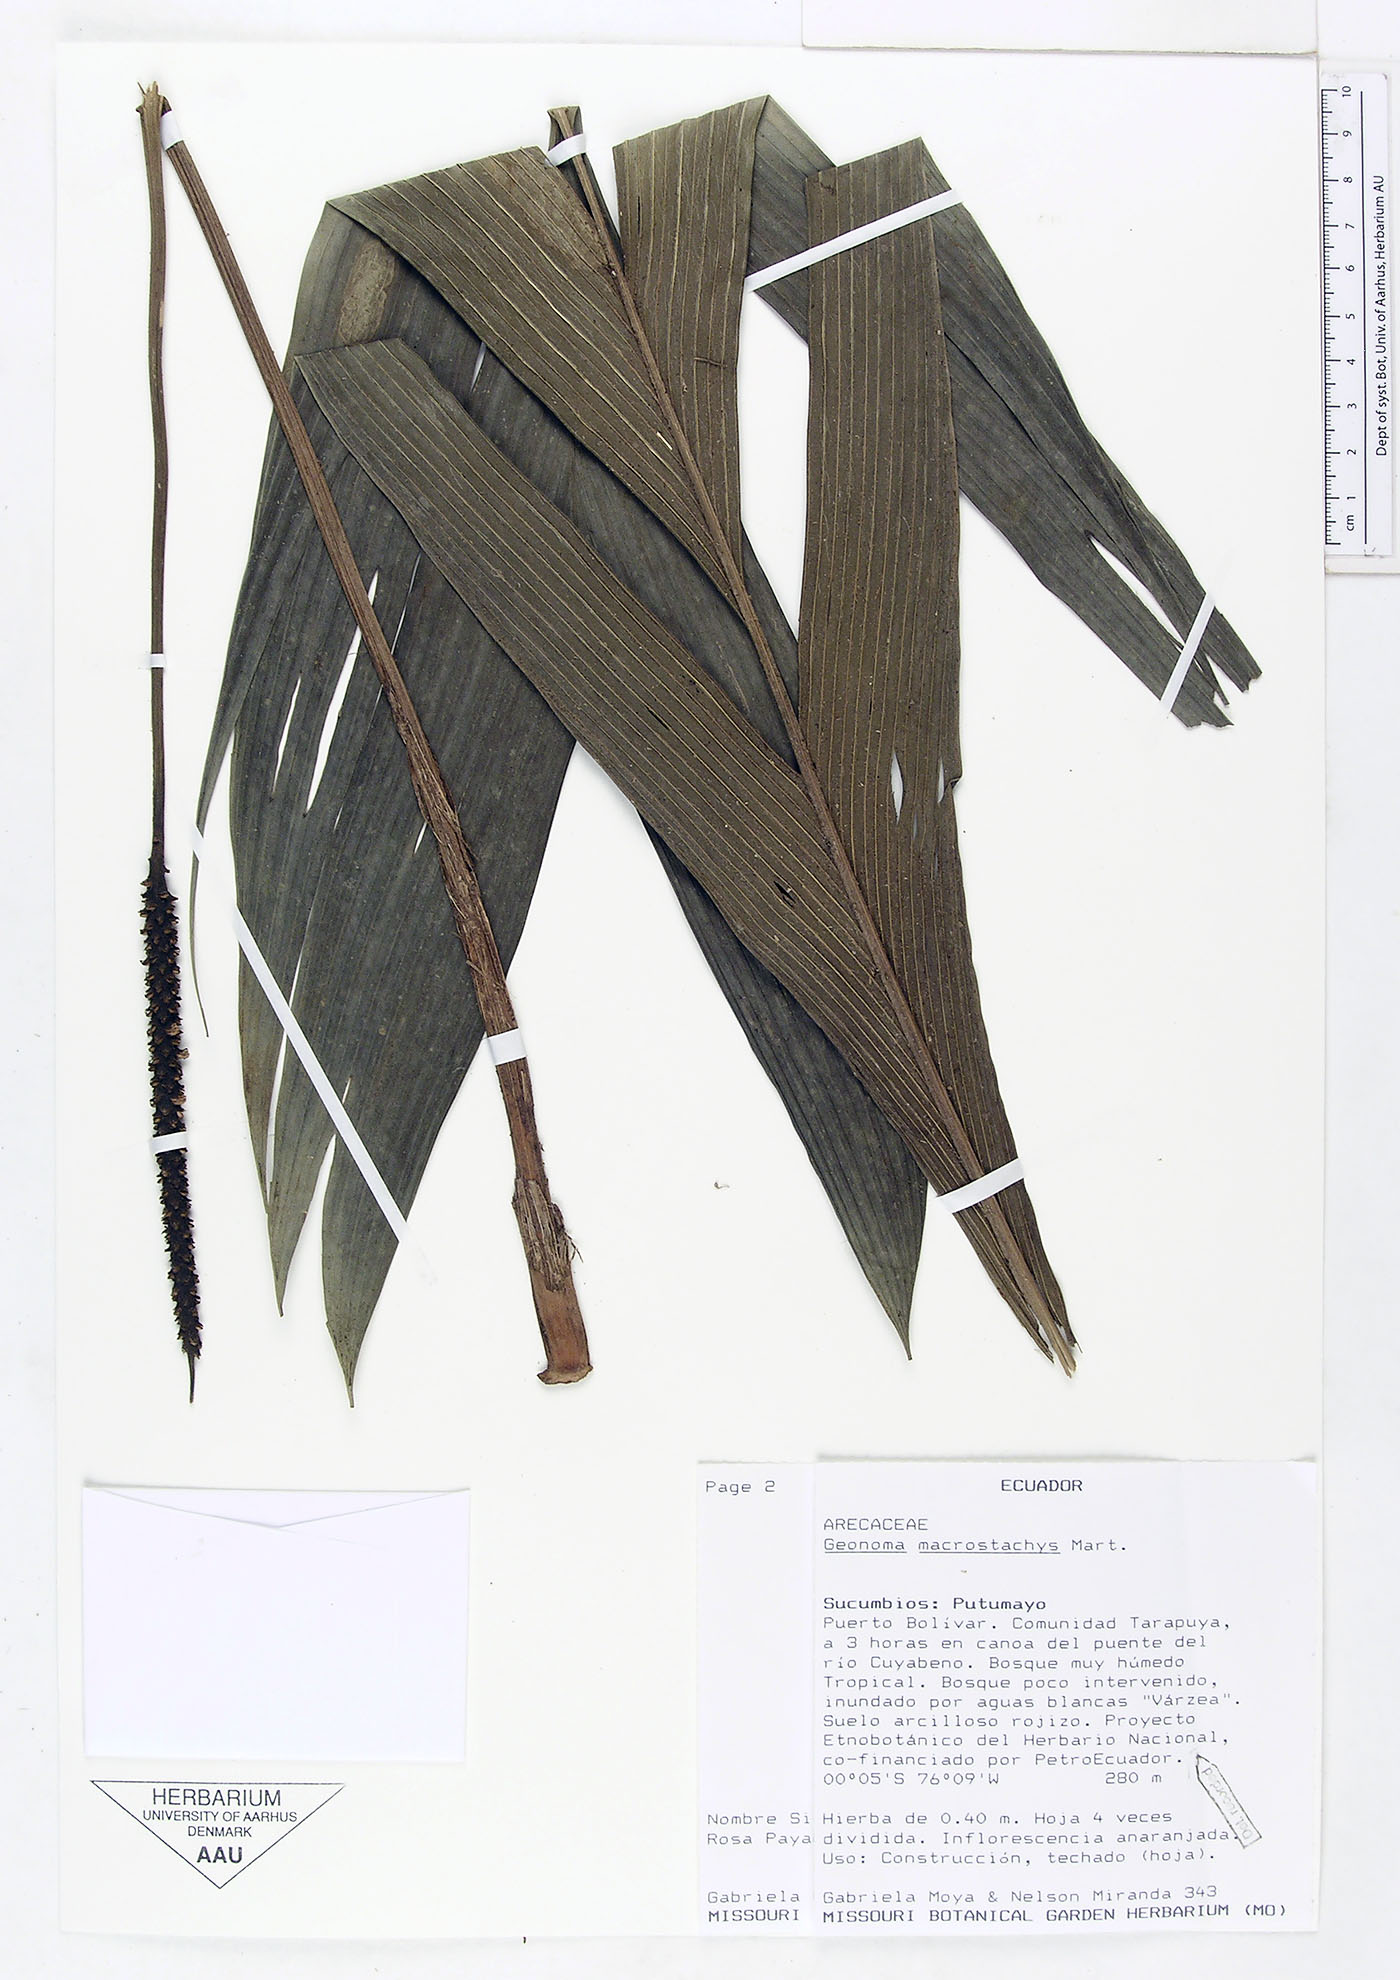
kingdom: Plantae
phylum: Tracheophyta
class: Liliopsida
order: Arecales
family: Arecaceae
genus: Geonoma
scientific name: Geonoma macrostachys
